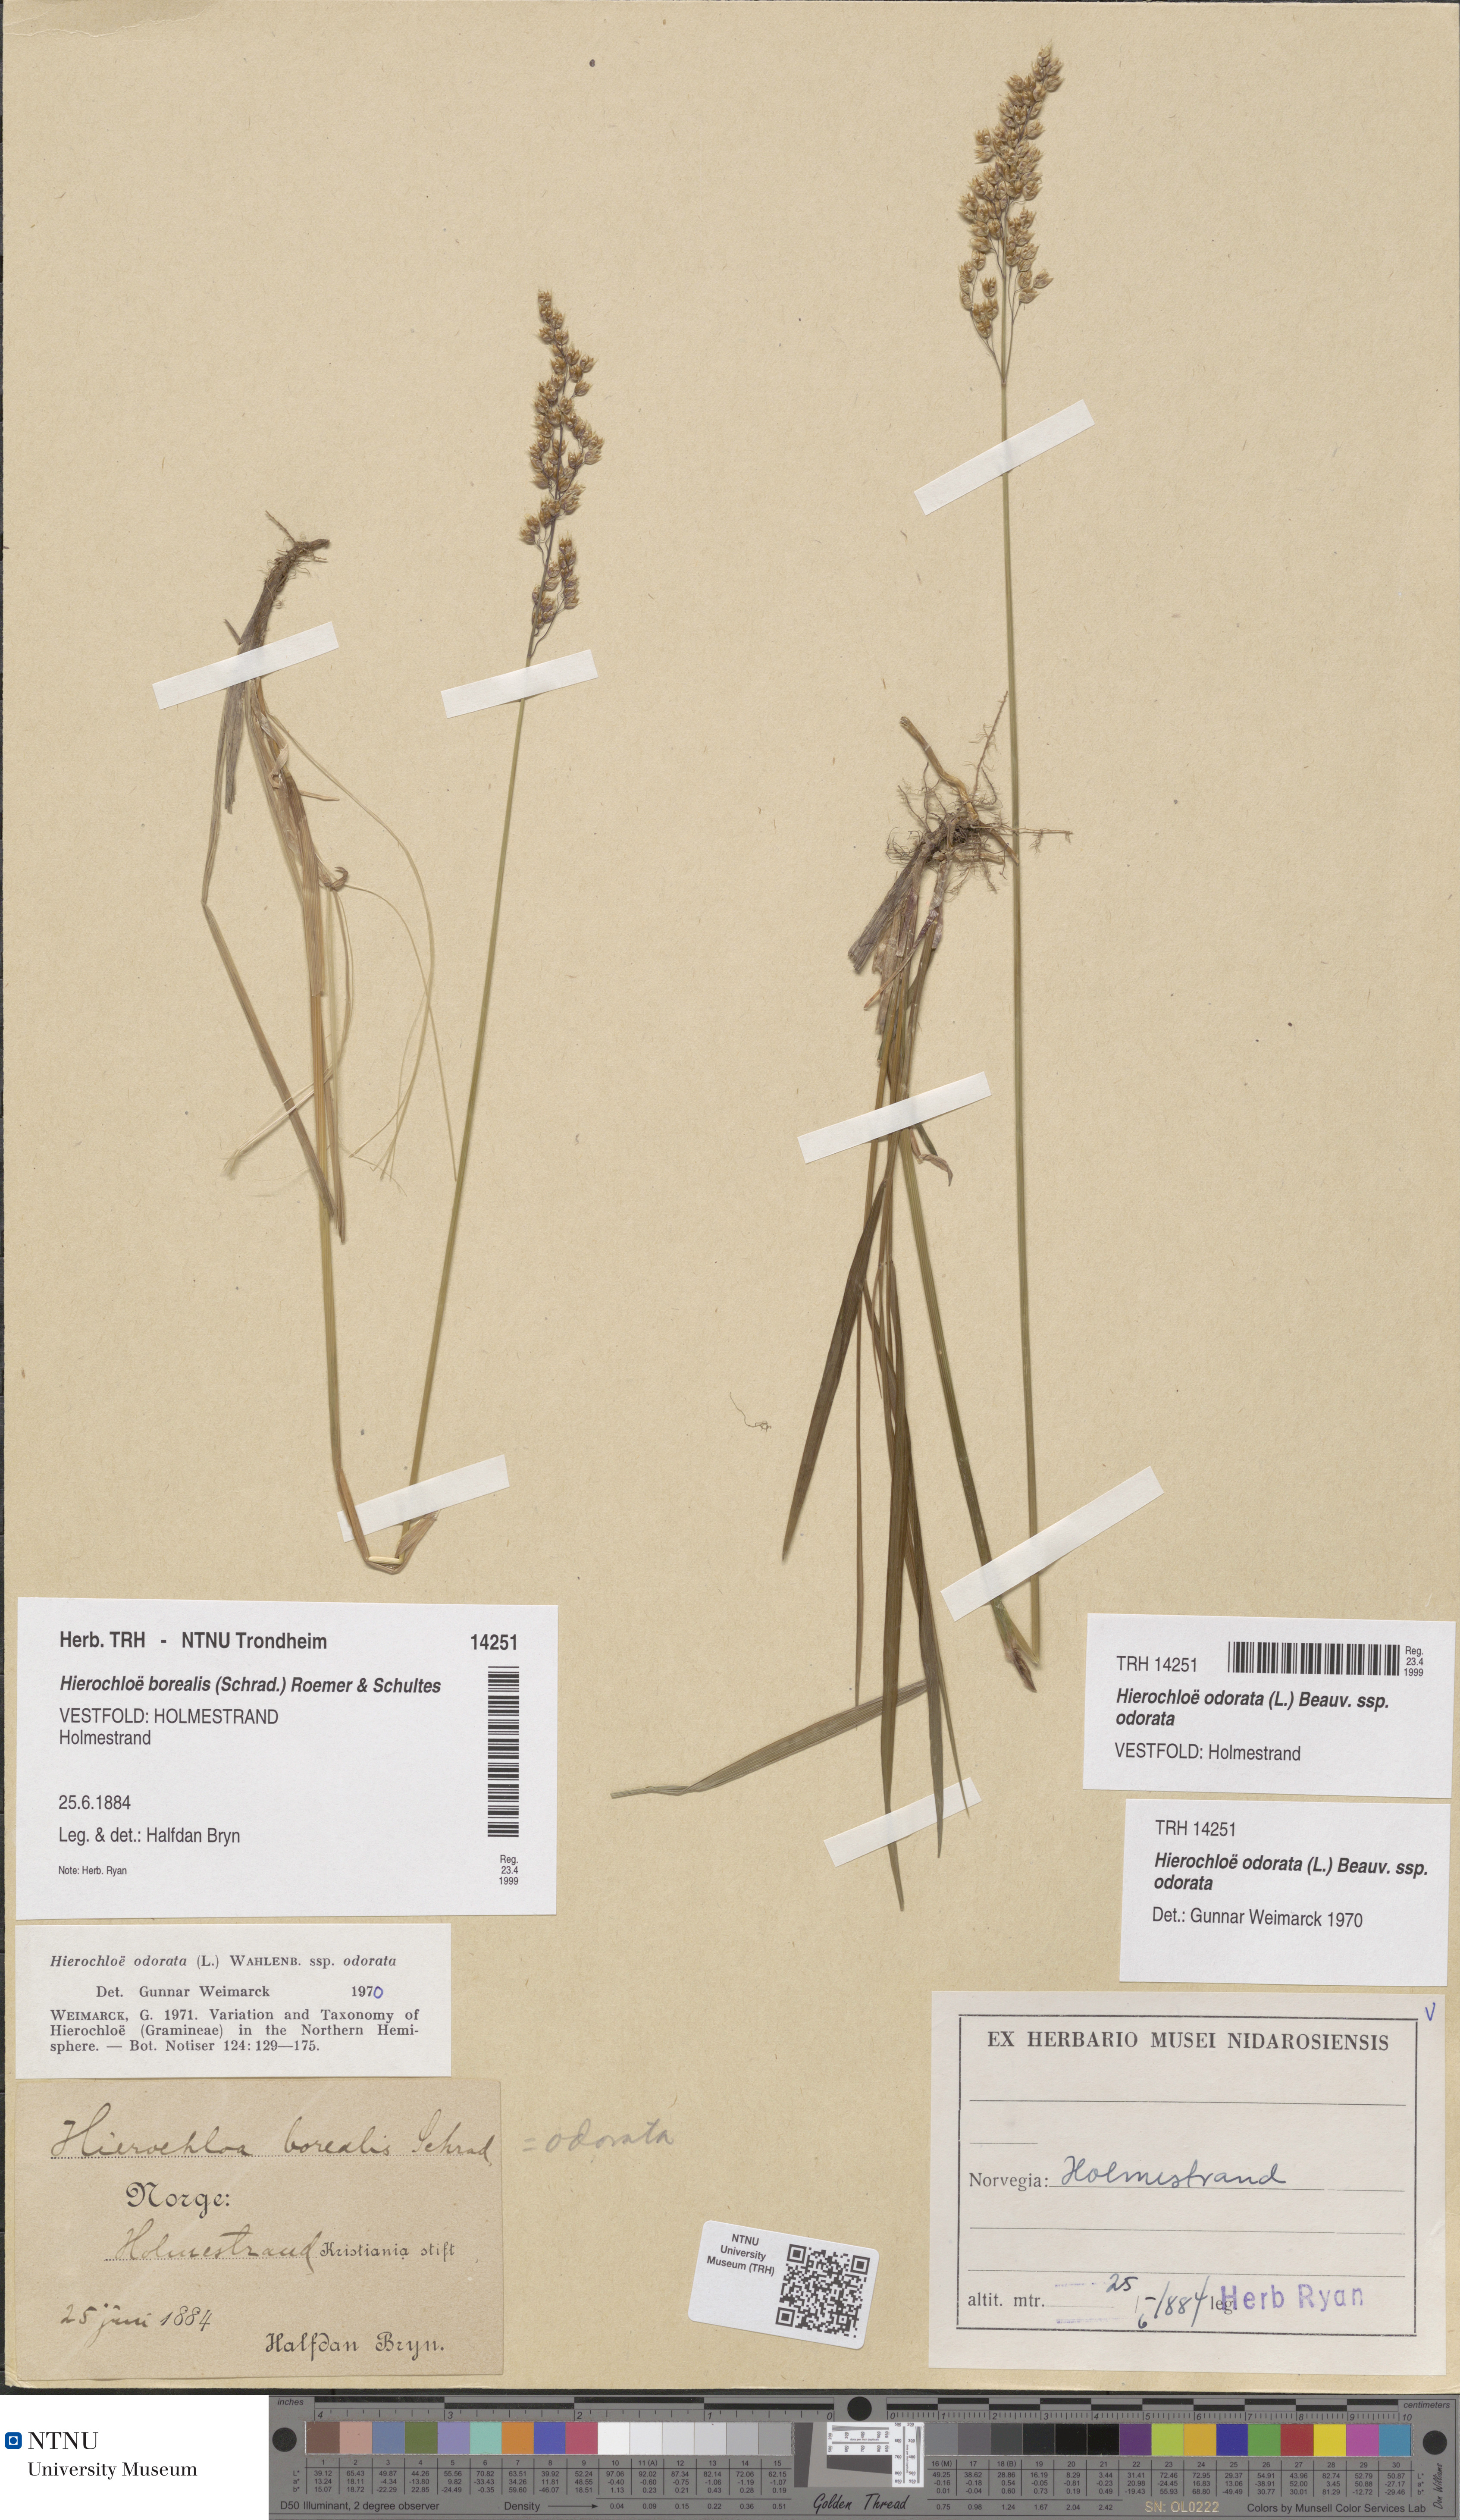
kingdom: Plantae
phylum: Tracheophyta
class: Liliopsida
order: Poales
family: Poaceae
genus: Anthoxanthum
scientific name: Anthoxanthum nitens
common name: Holy grass
